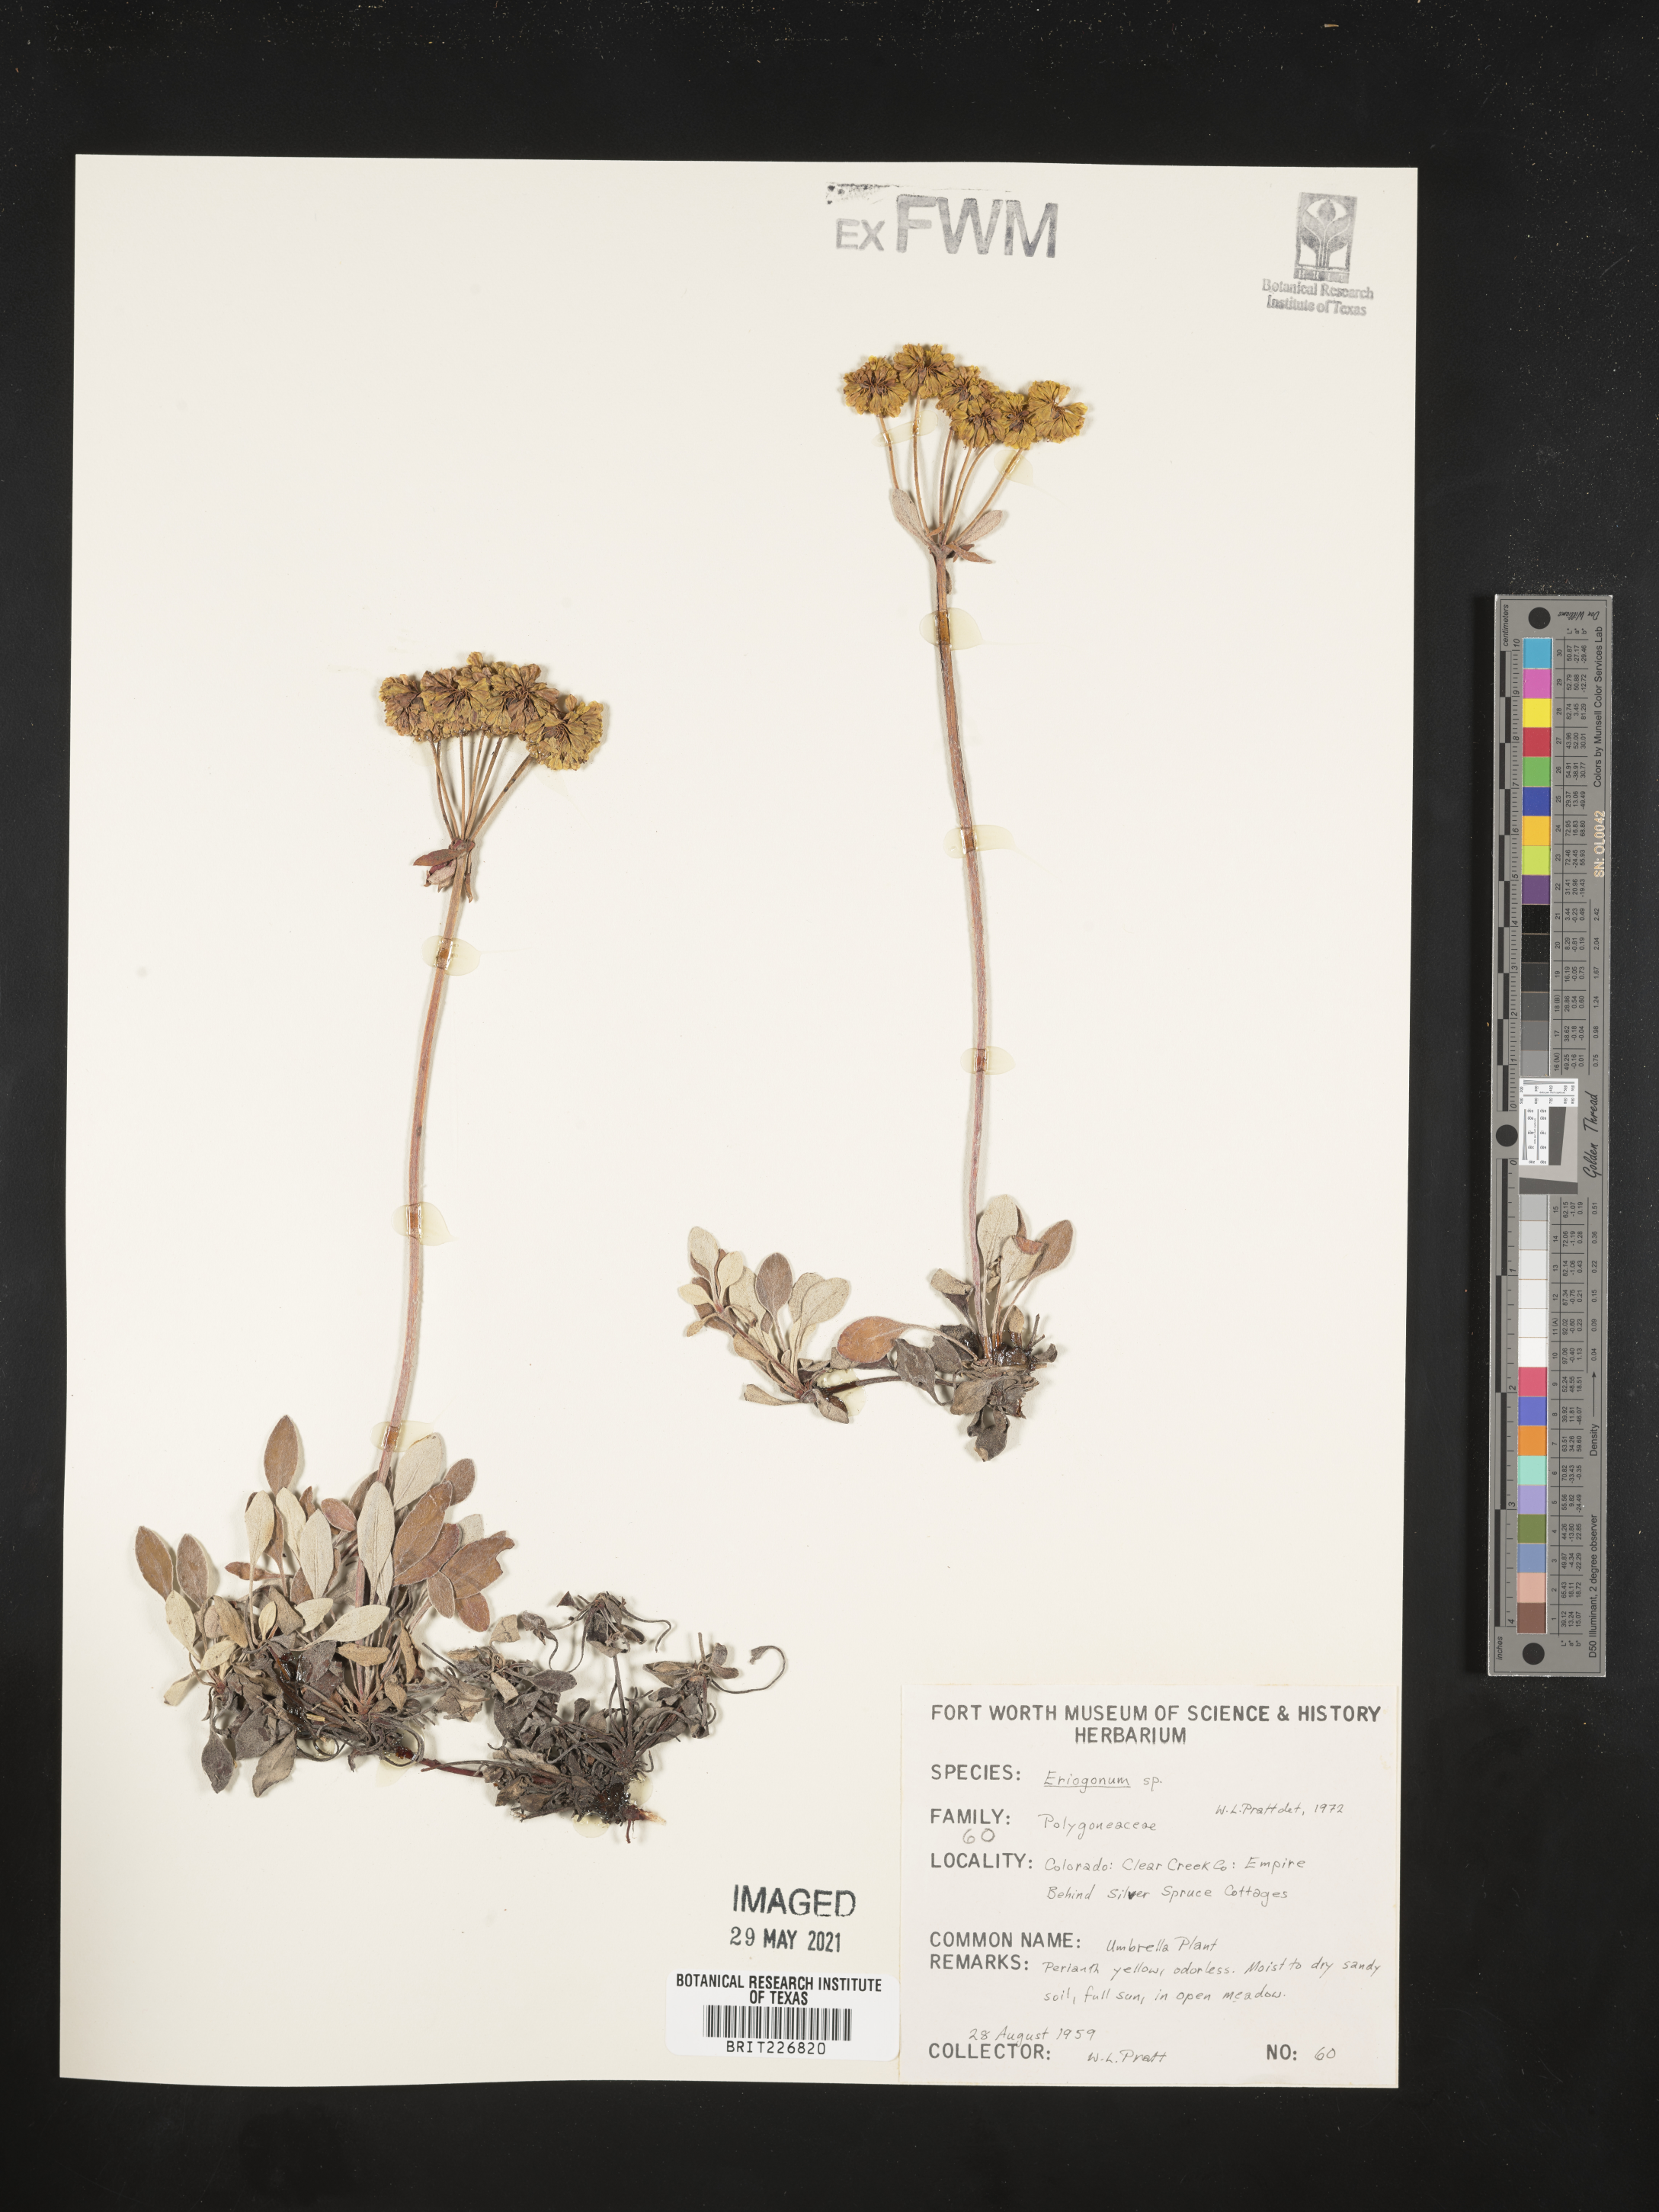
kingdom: Plantae
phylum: Tracheophyta
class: Magnoliopsida
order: Caryophyllales
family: Polygonaceae
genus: Eriogonum
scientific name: Eriogonum
